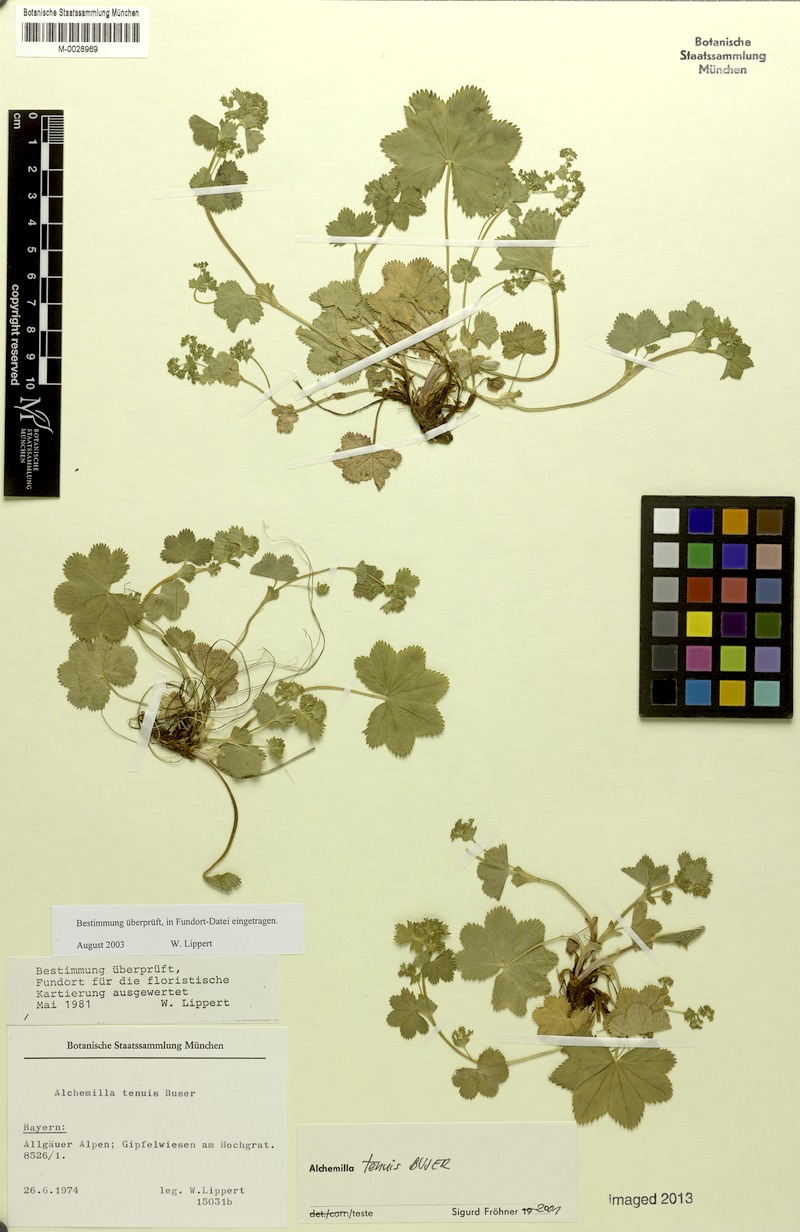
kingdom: Plantae
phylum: Tracheophyta
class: Magnoliopsida
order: Rosales
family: Rosaceae
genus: Alchemilla
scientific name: Alchemilla tenuis
